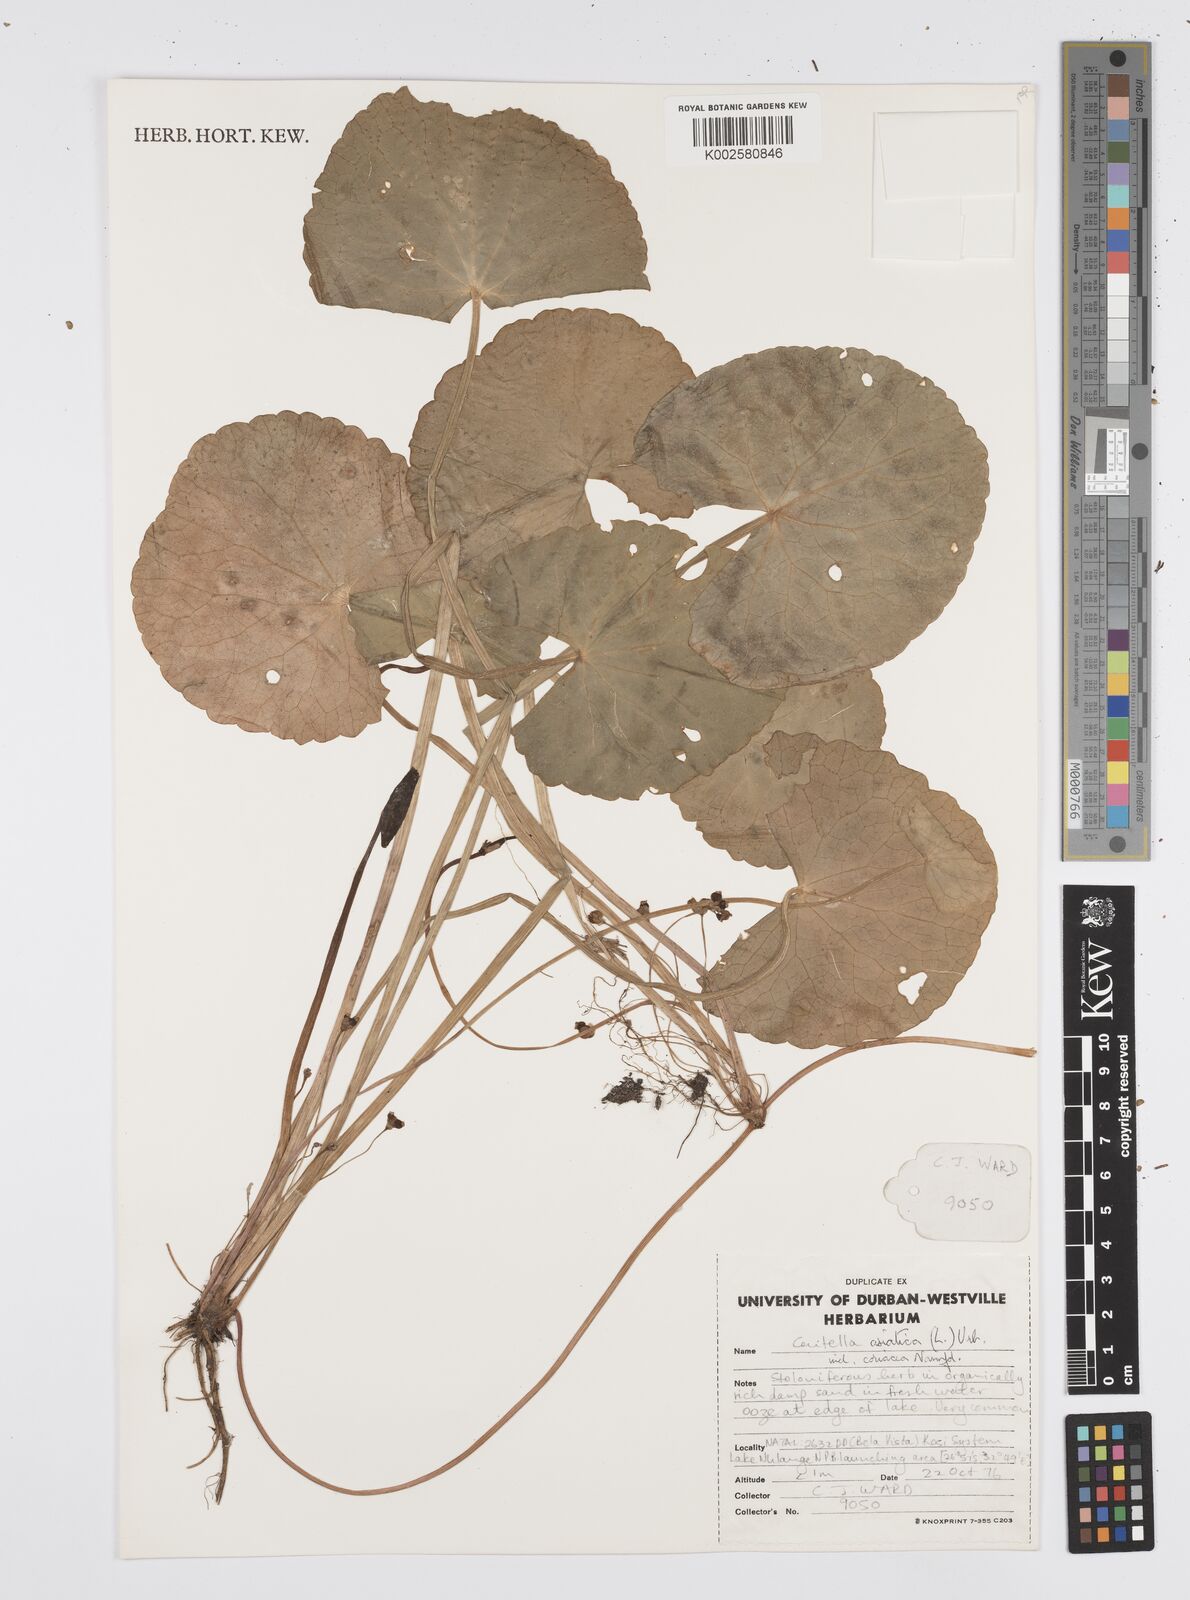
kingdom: Plantae
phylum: Tracheophyta
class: Magnoliopsida
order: Apiales
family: Apiaceae
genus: Centella
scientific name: Centella coriacea
